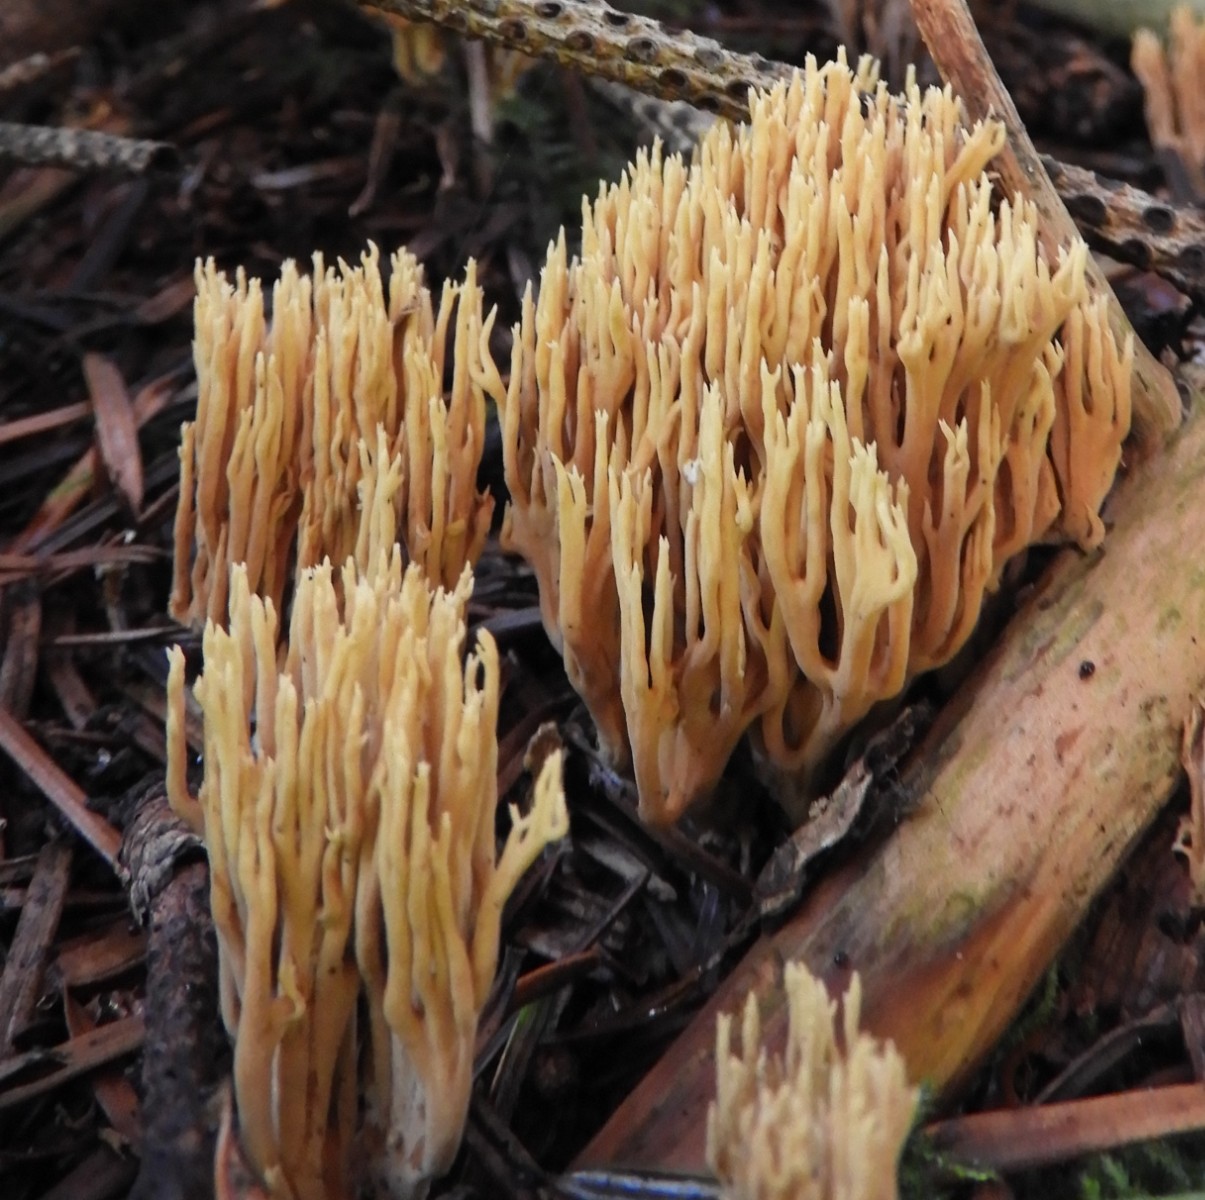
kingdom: Fungi
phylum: Basidiomycota
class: Agaricomycetes
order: Gomphales
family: Gomphaceae
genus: Phaeoclavulina
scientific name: Phaeoclavulina eumorpha
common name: gran-koralsvamp
